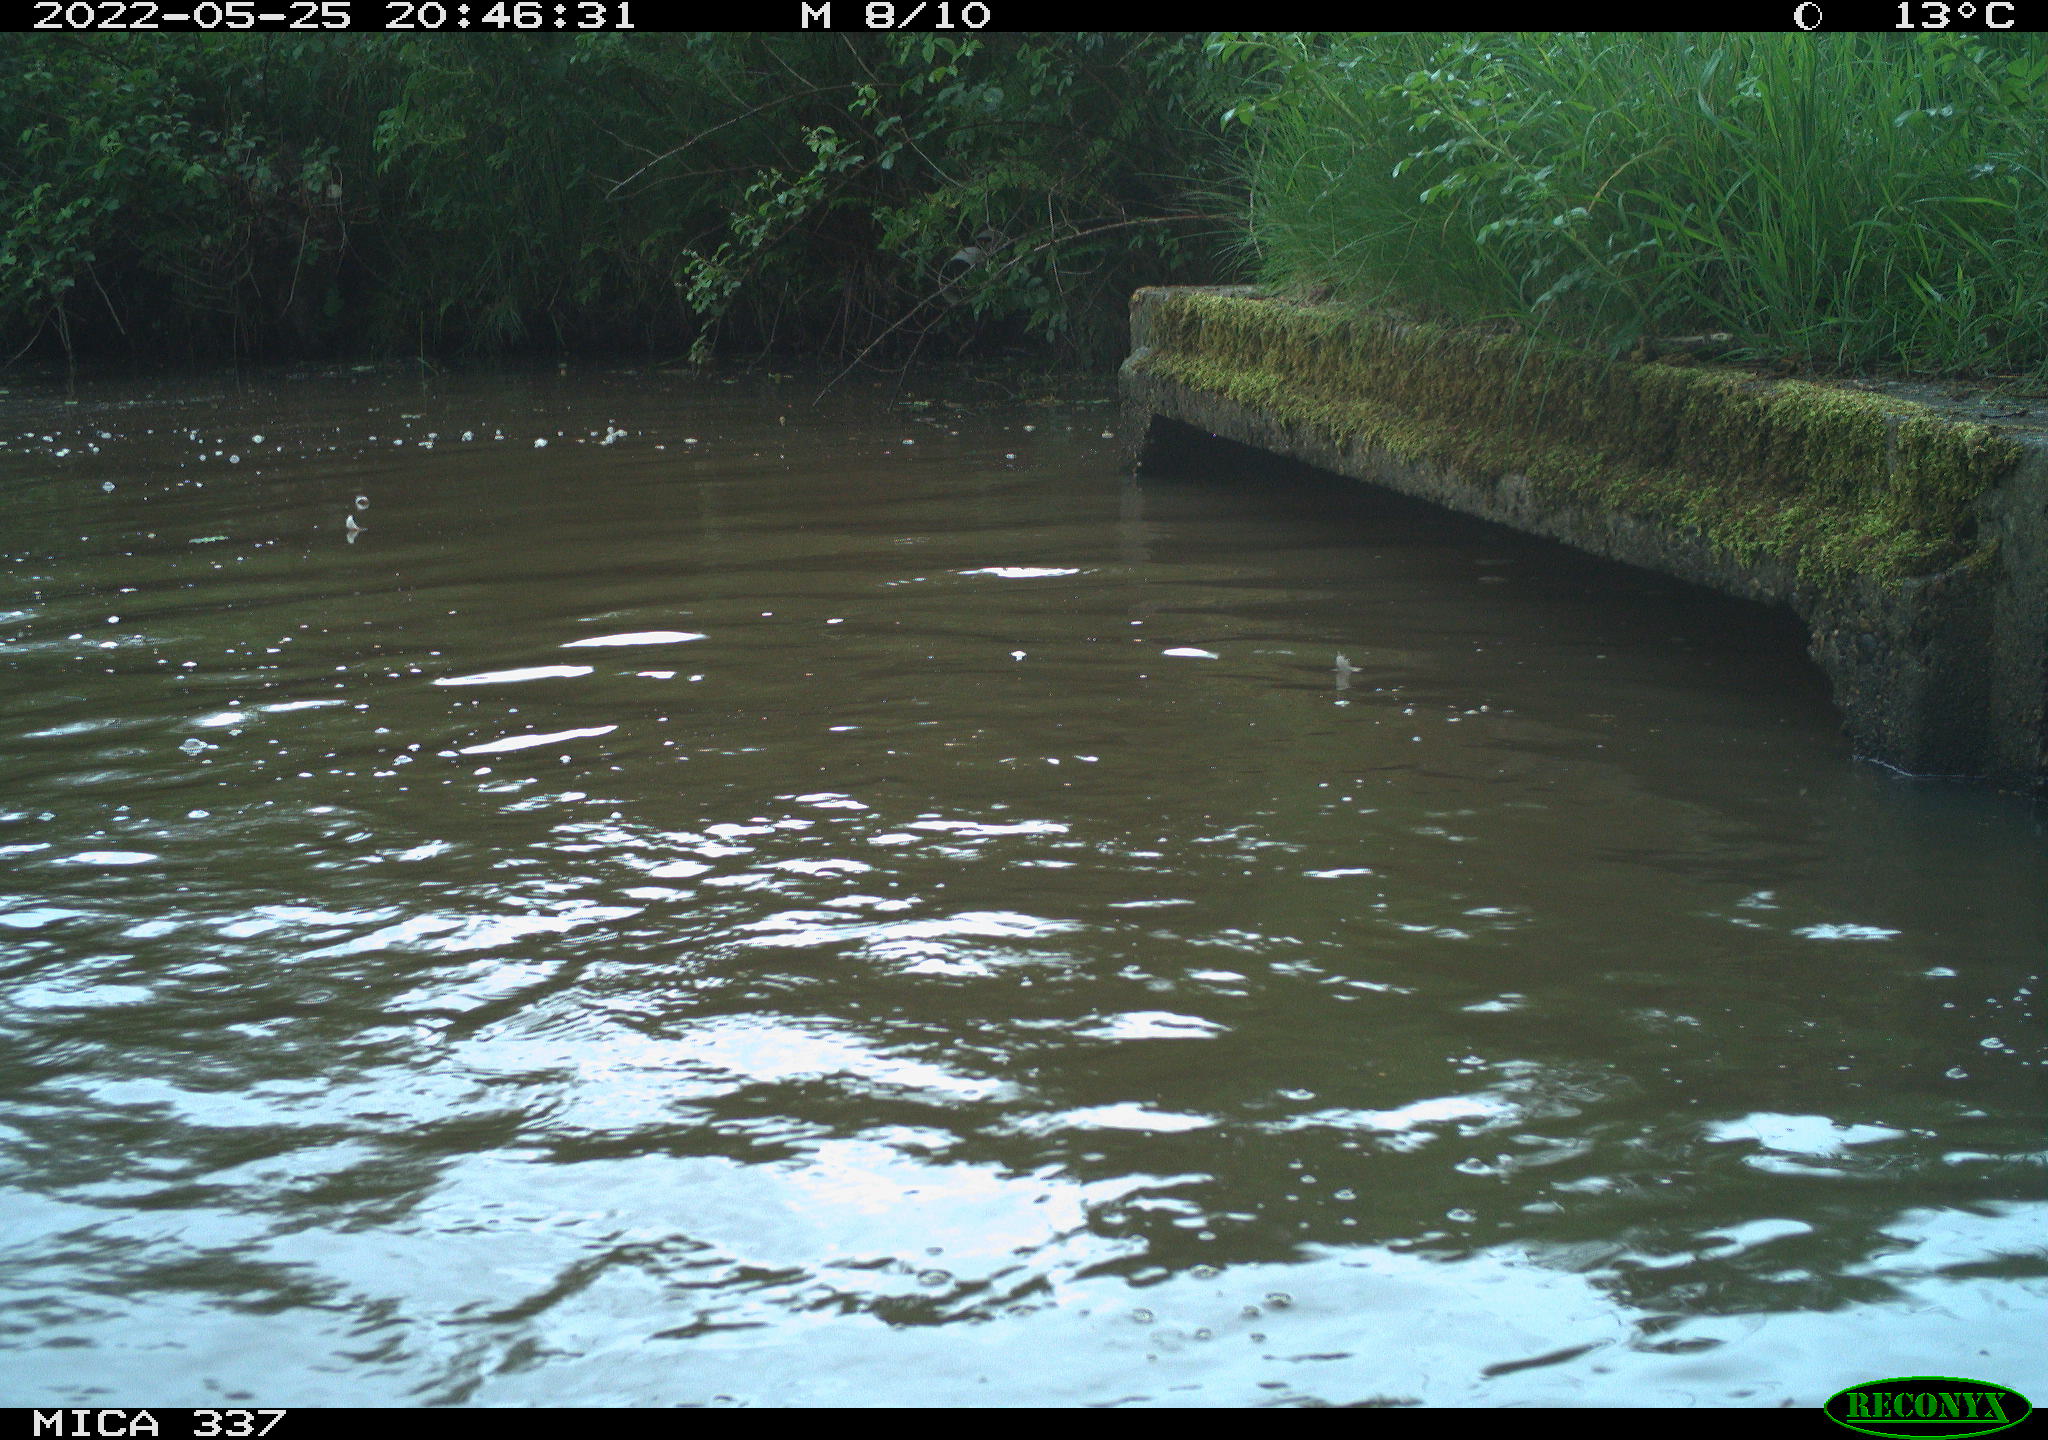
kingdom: Animalia
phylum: Chordata
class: Aves
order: Anseriformes
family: Anatidae
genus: Anas
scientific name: Anas platyrhynchos
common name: Mallard
